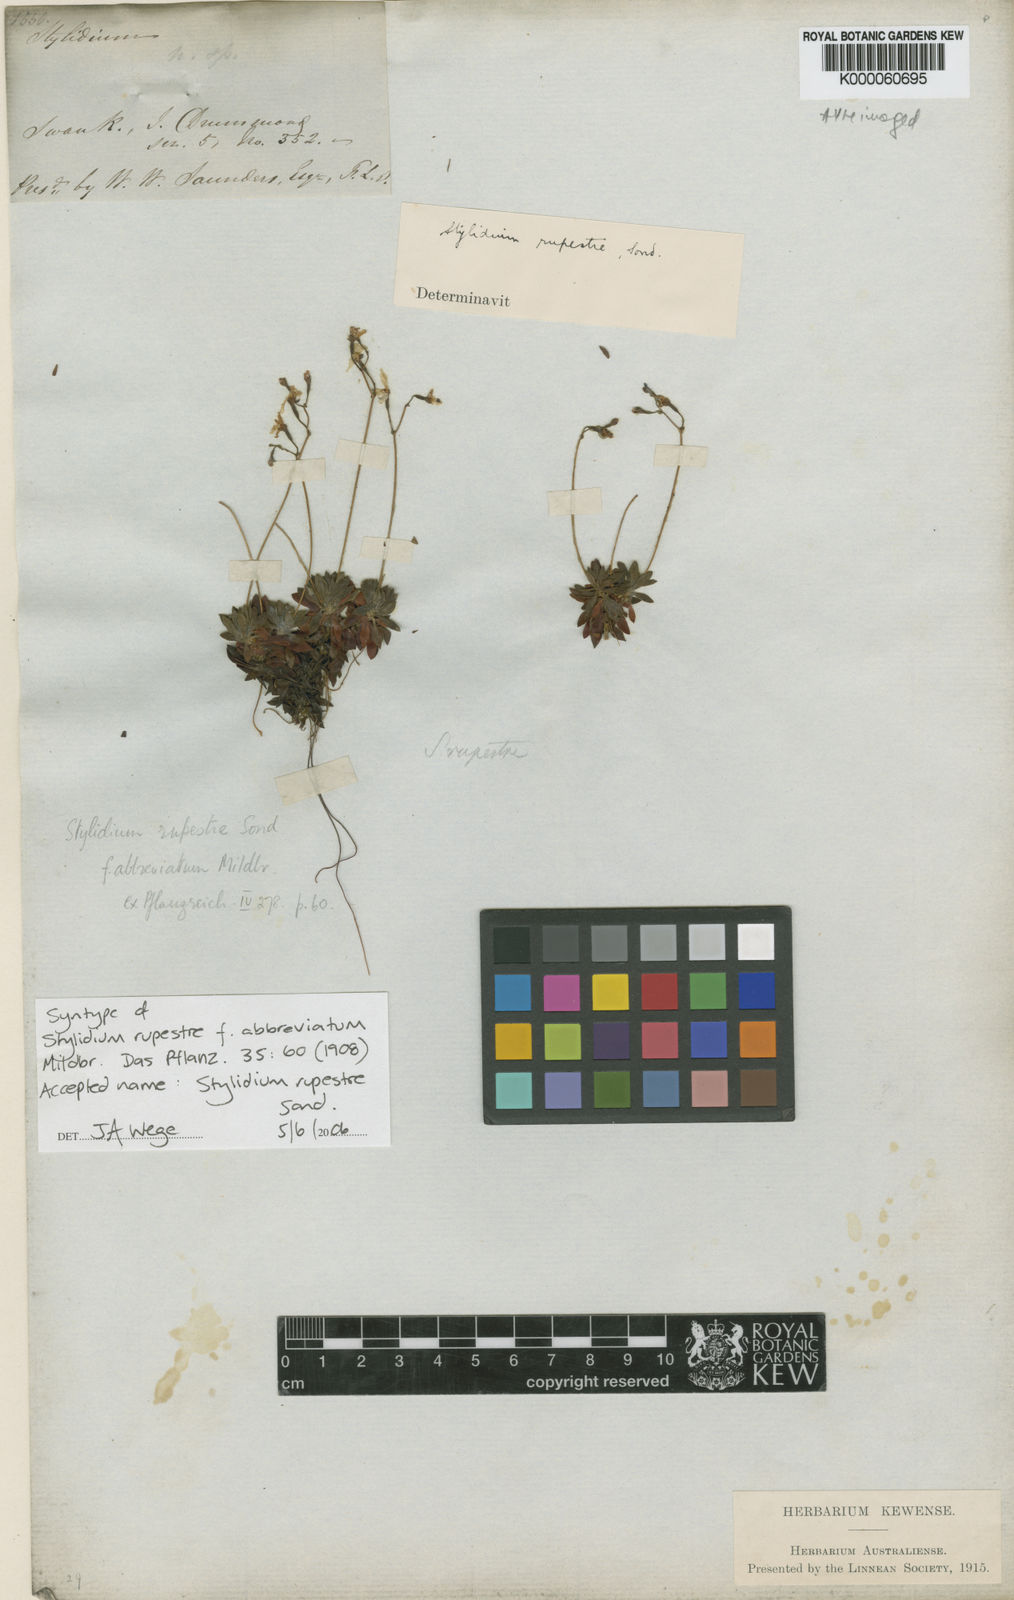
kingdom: Plantae
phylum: Tracheophyta
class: Magnoliopsida
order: Asterales
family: Stylidiaceae
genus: Stylidium
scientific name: Stylidium rupestre
